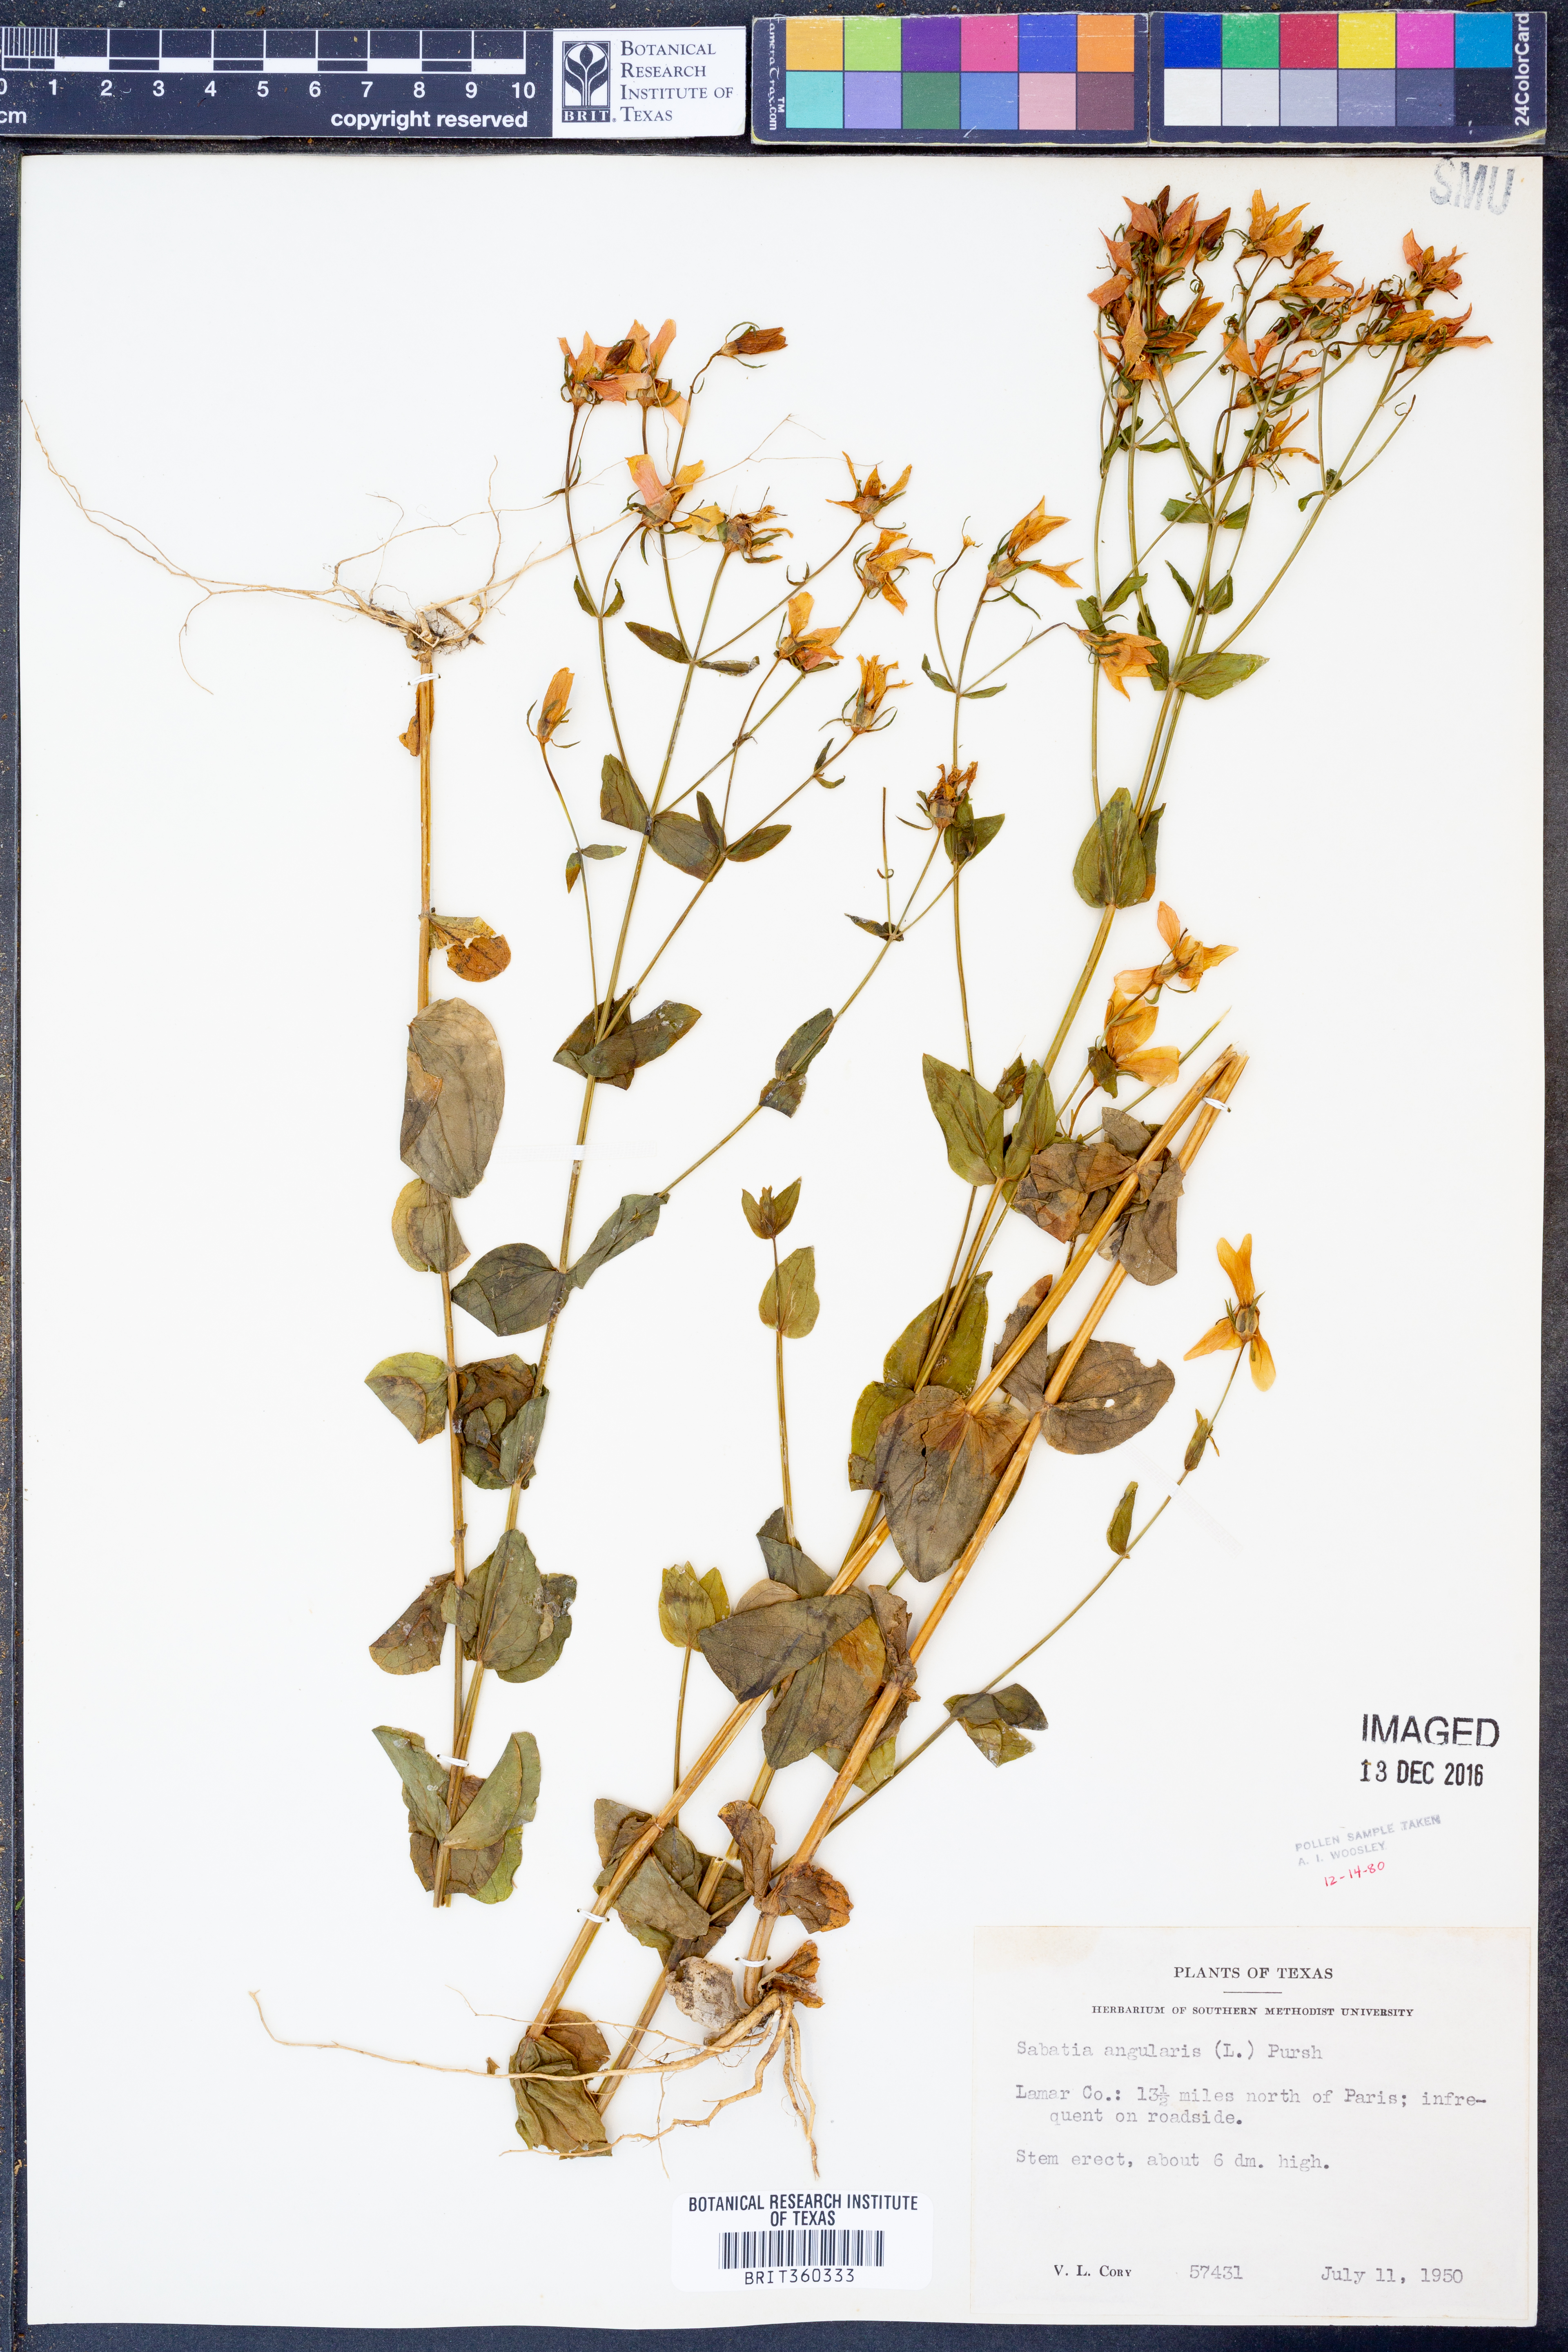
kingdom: Plantae
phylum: Tracheophyta
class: Magnoliopsida
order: Gentianales
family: Gentianaceae
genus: Sabatia
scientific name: Sabatia angularis
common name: Rose-pink
